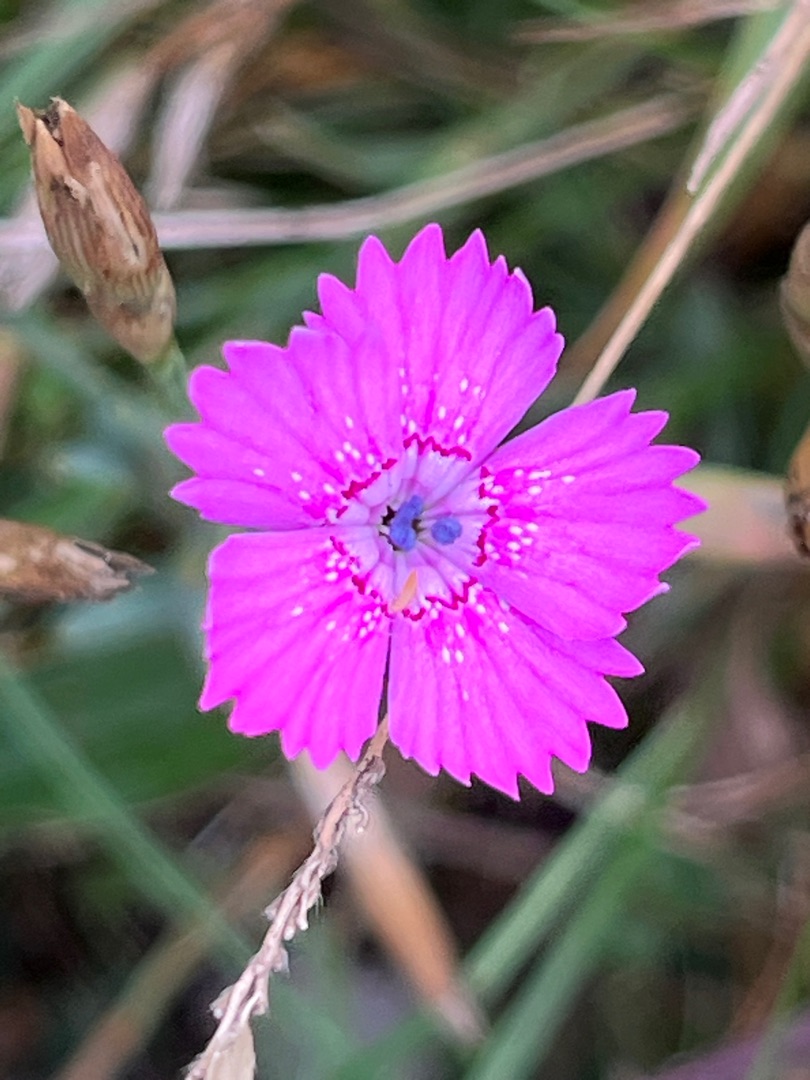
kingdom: Plantae
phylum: Tracheophyta
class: Magnoliopsida
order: Caryophyllales
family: Caryophyllaceae
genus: Dianthus
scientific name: Dianthus deltoides
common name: Bakke-nellike
